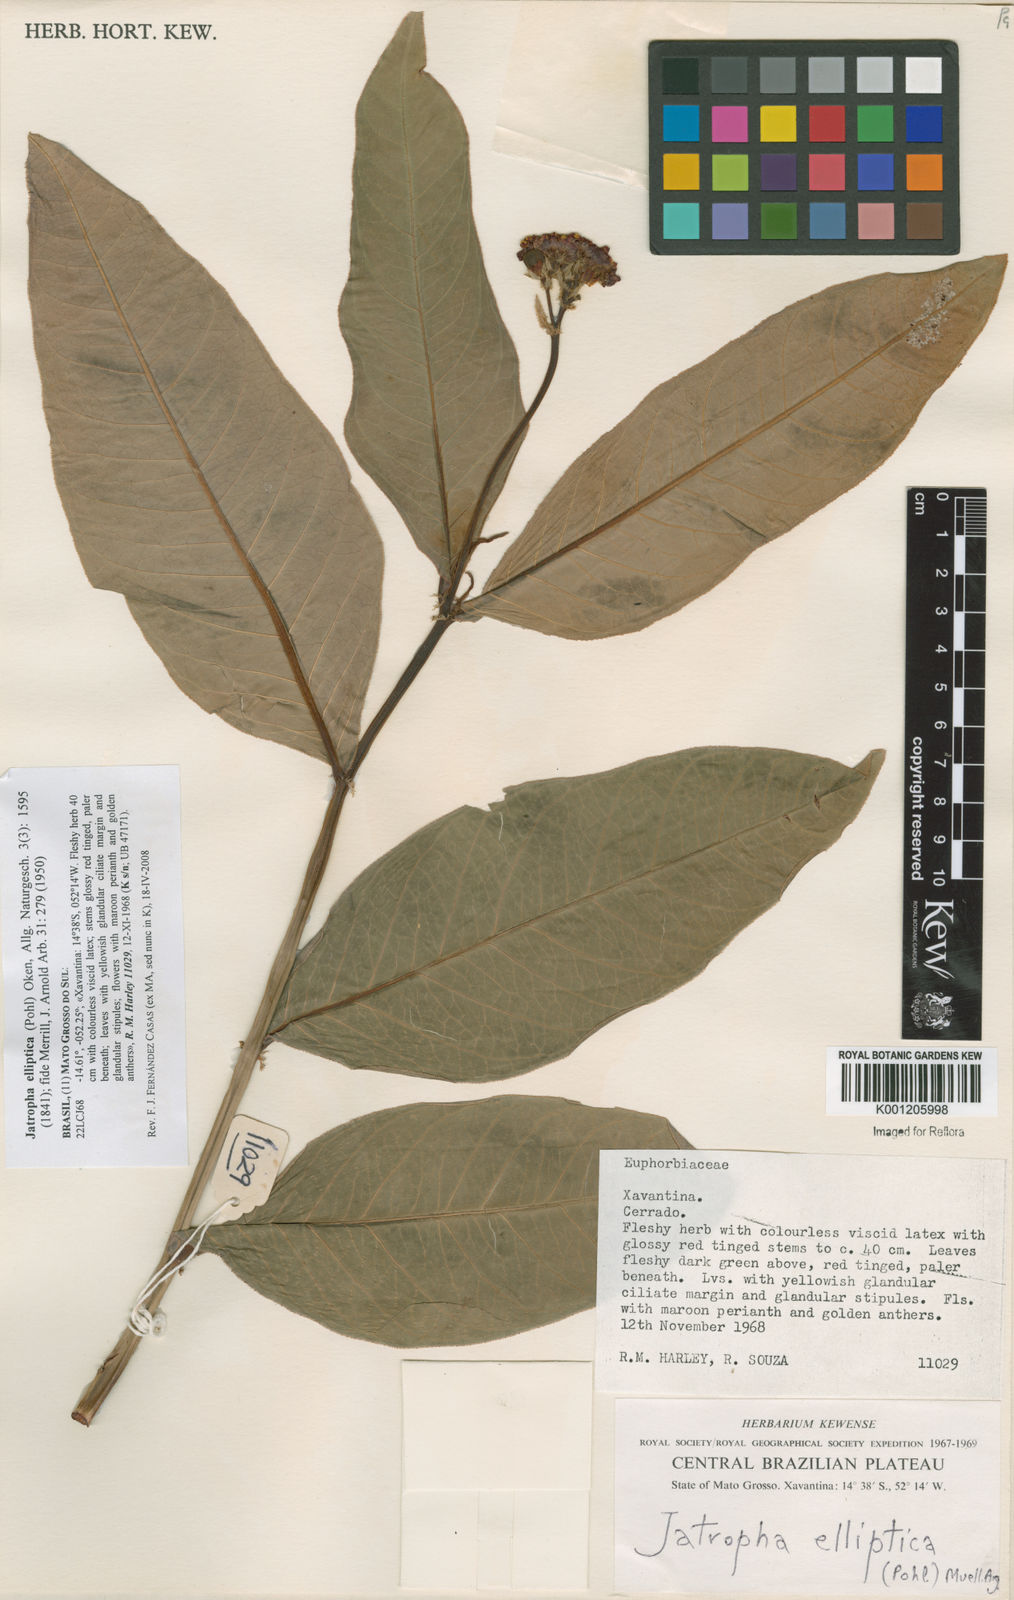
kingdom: Plantae
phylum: Tracheophyta
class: Magnoliopsida
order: Malpighiales
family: Euphorbiaceae
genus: Jatropha
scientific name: Jatropha elliptica
